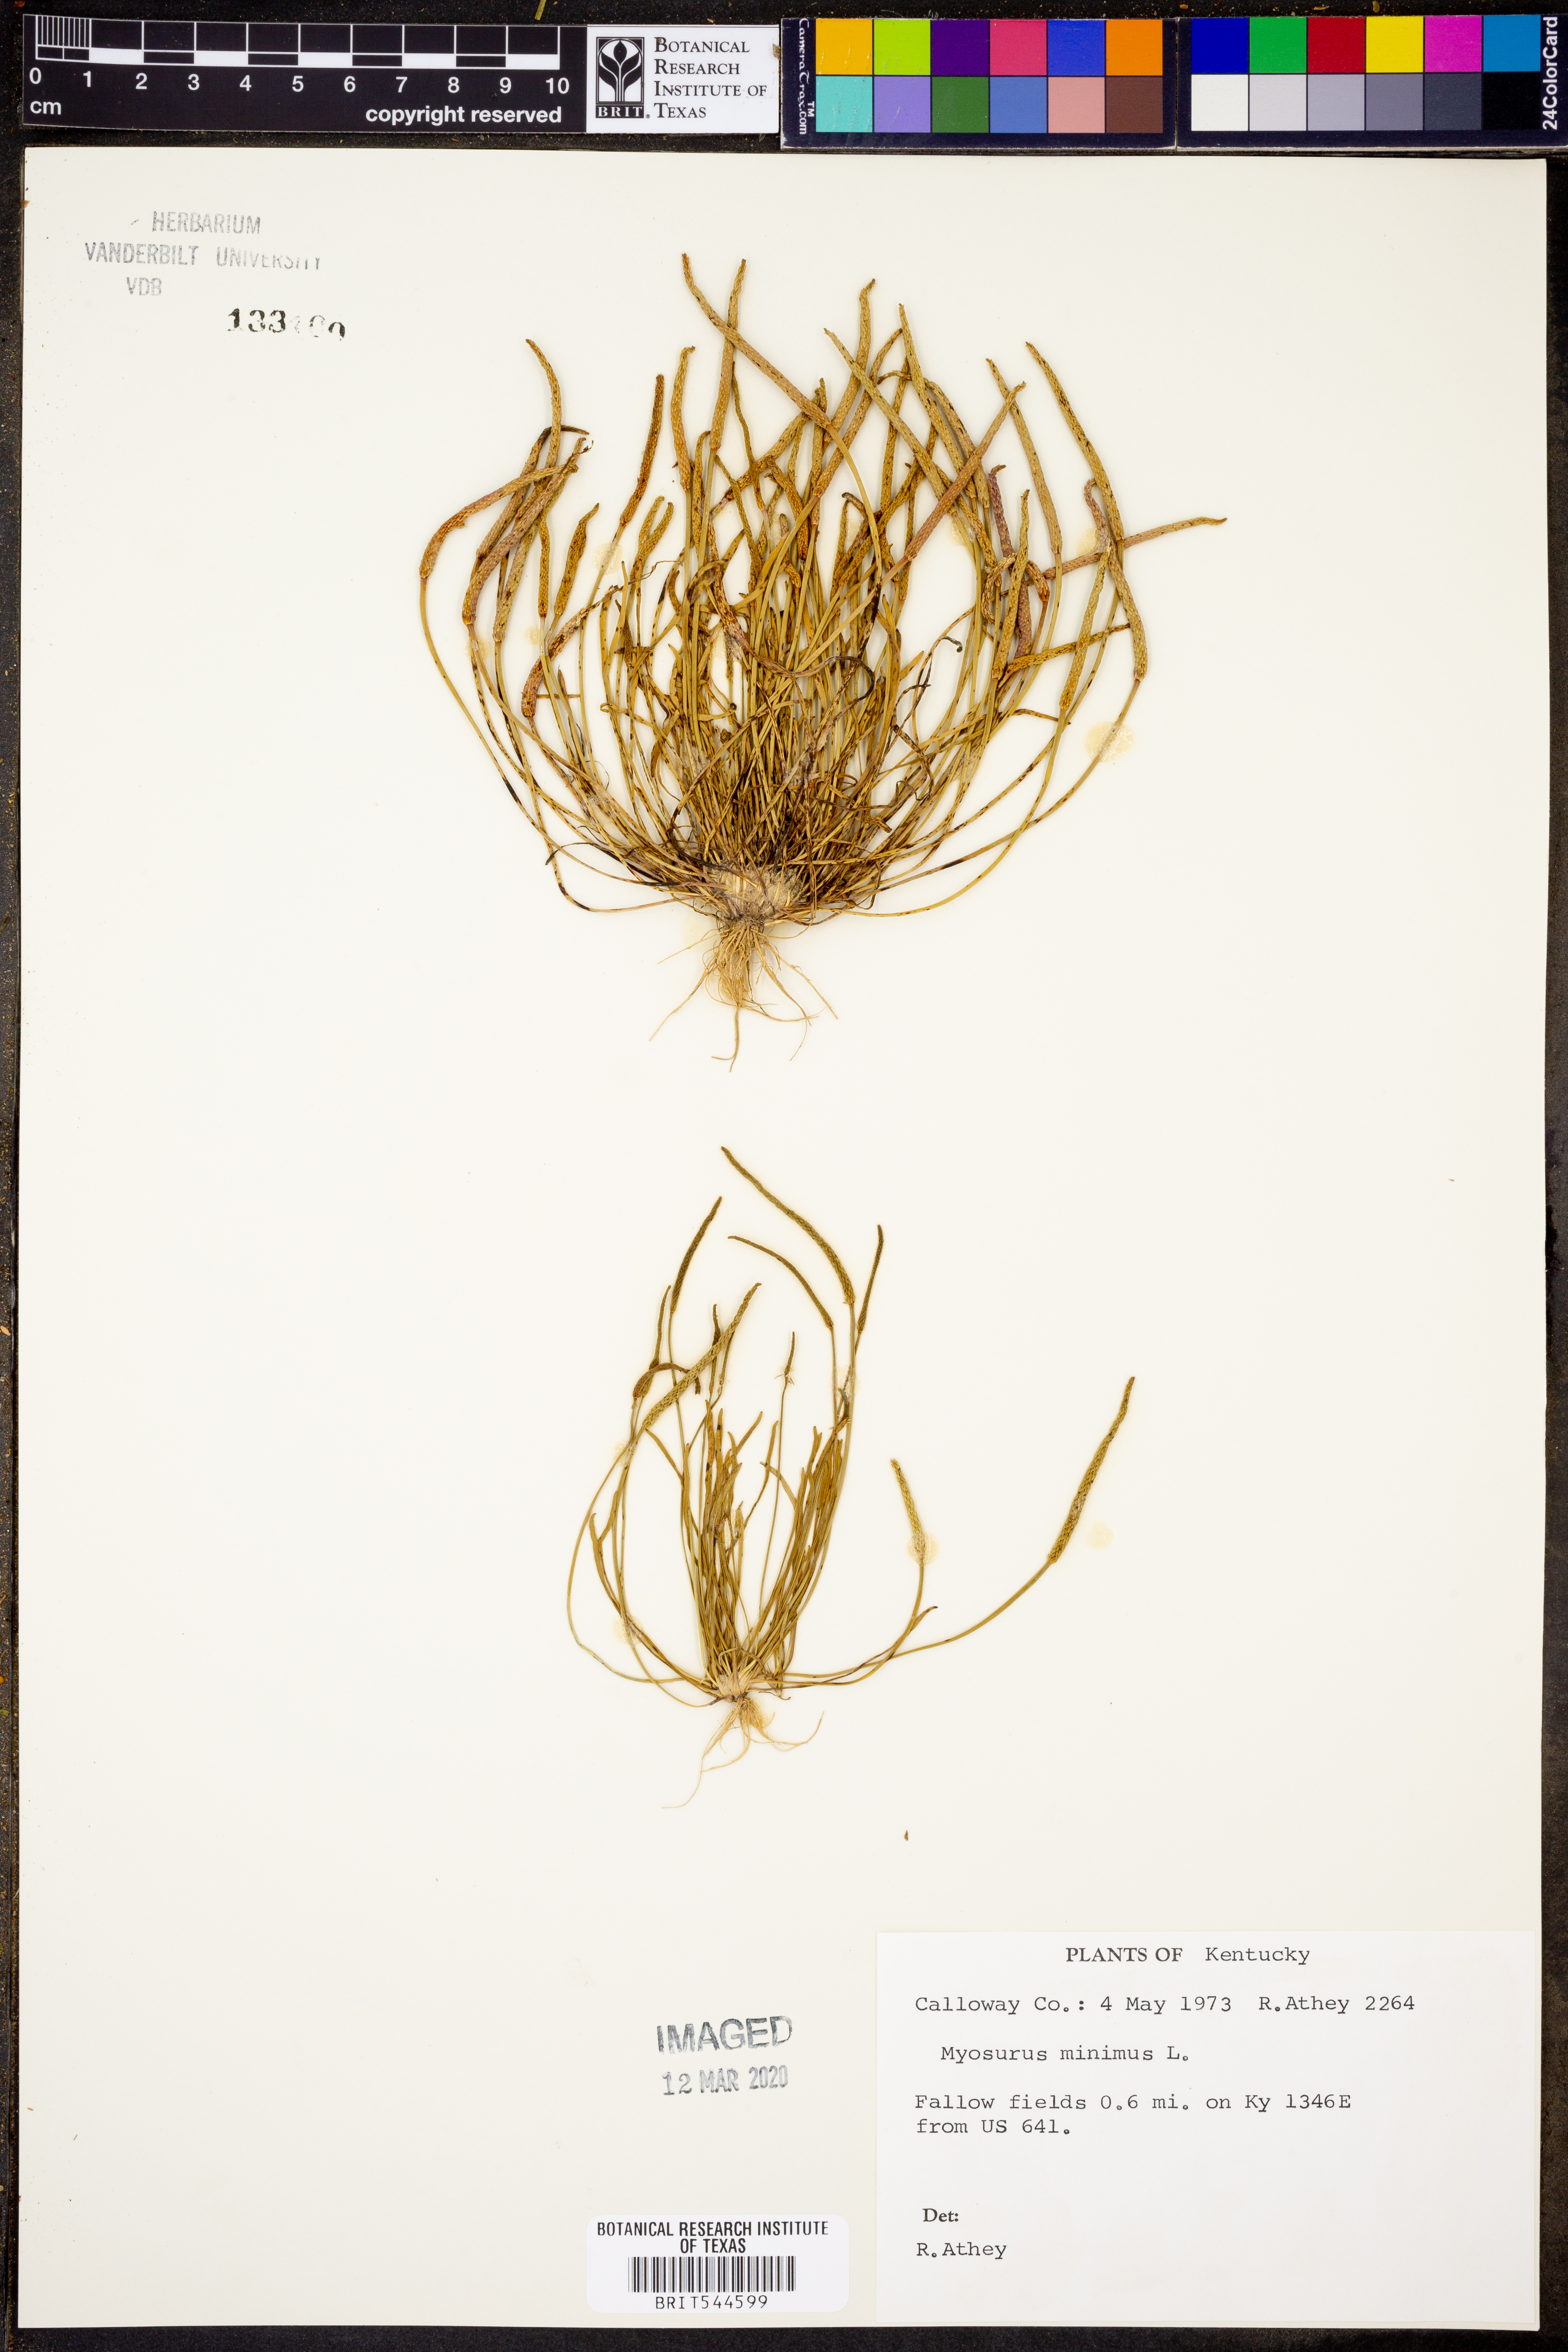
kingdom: Plantae
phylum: Tracheophyta
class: Magnoliopsida
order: Ranunculales
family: Ranunculaceae
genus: Myosurus
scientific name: Myosurus minimus
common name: Mousetail
